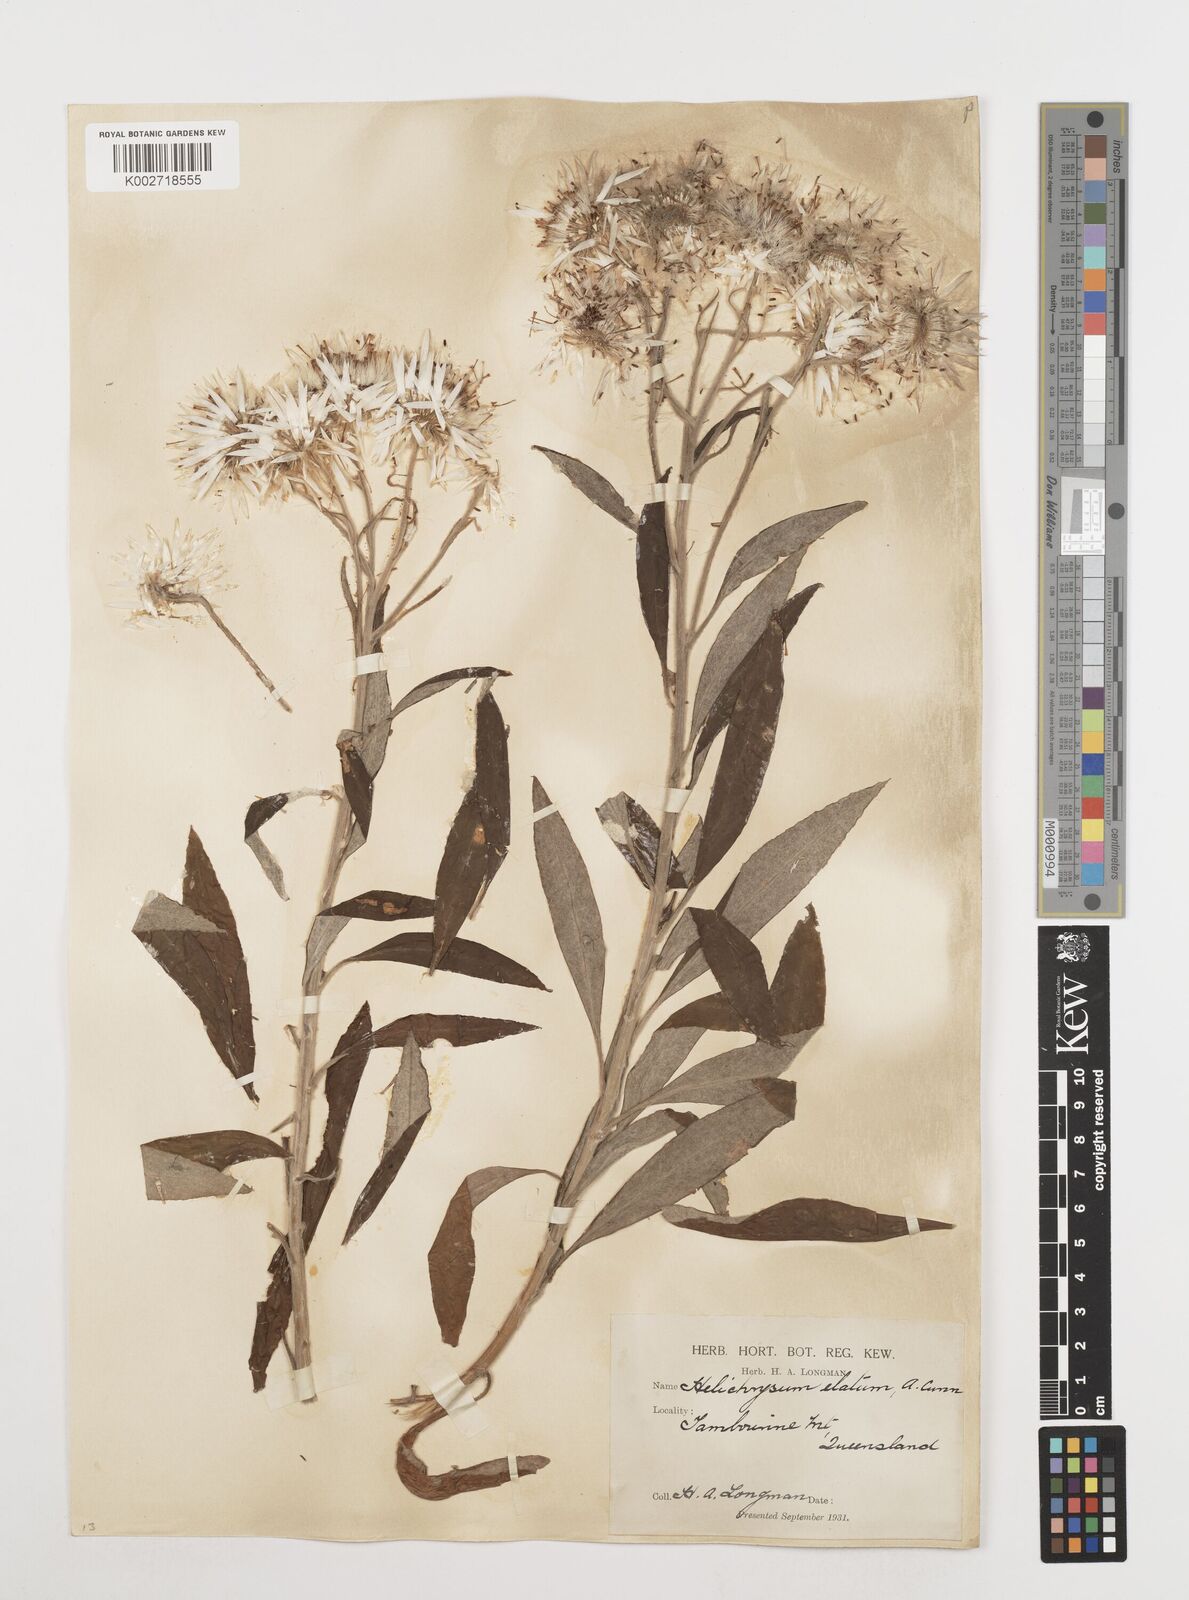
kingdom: Plantae
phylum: Tracheophyta
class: Magnoliopsida
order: Asterales
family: Asteraceae
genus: Leucozoma
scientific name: Leucozoma elatum
